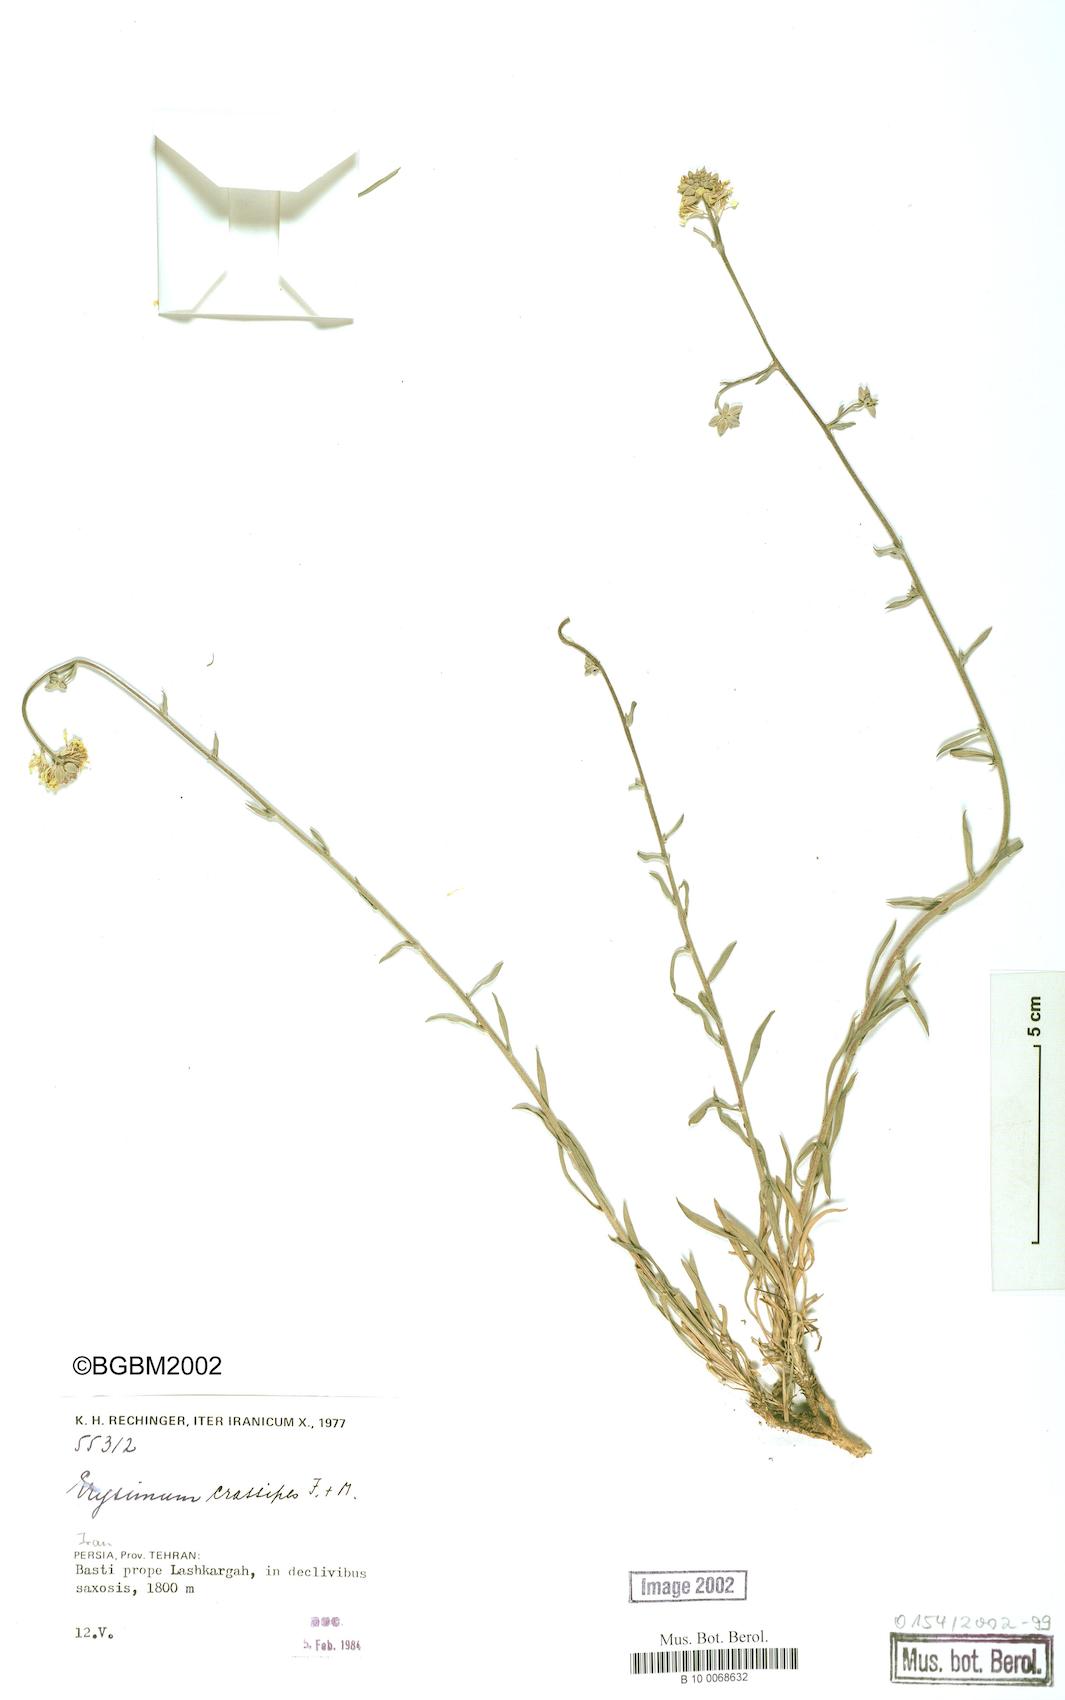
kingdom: Plantae
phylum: Tracheophyta
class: Magnoliopsida
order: Brassicales
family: Brassicaceae
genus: Erysimum
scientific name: Erysimum crassipes
